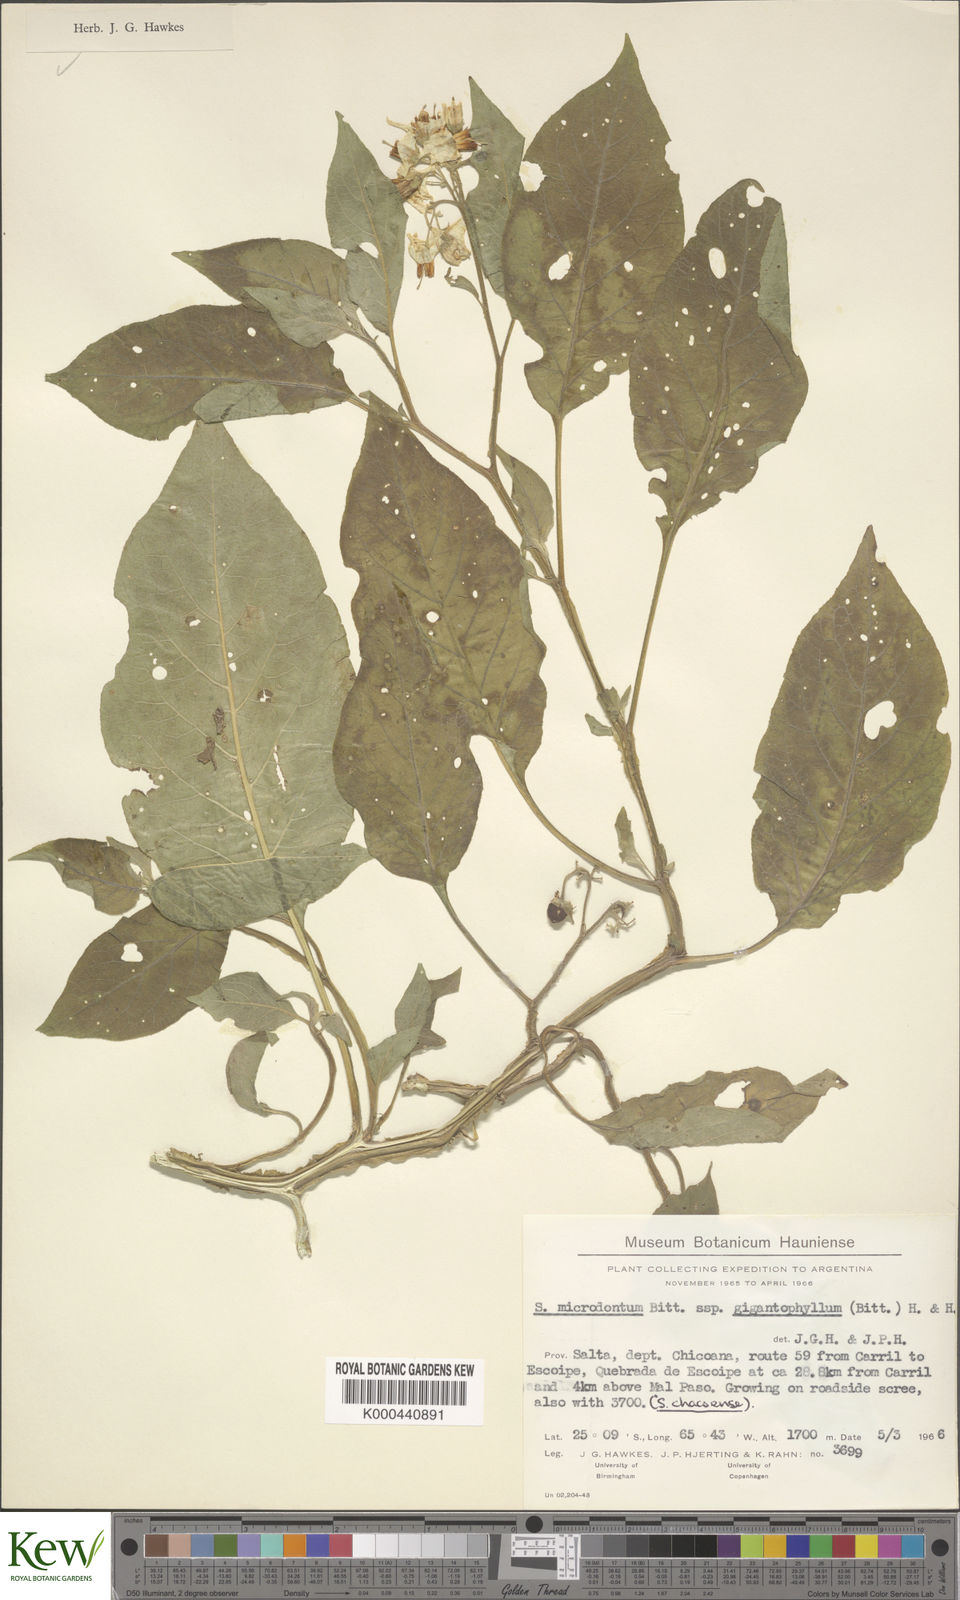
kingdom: Plantae
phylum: Tracheophyta
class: Magnoliopsida
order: Solanales
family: Solanaceae
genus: Solanum
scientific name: Solanum microdontum
